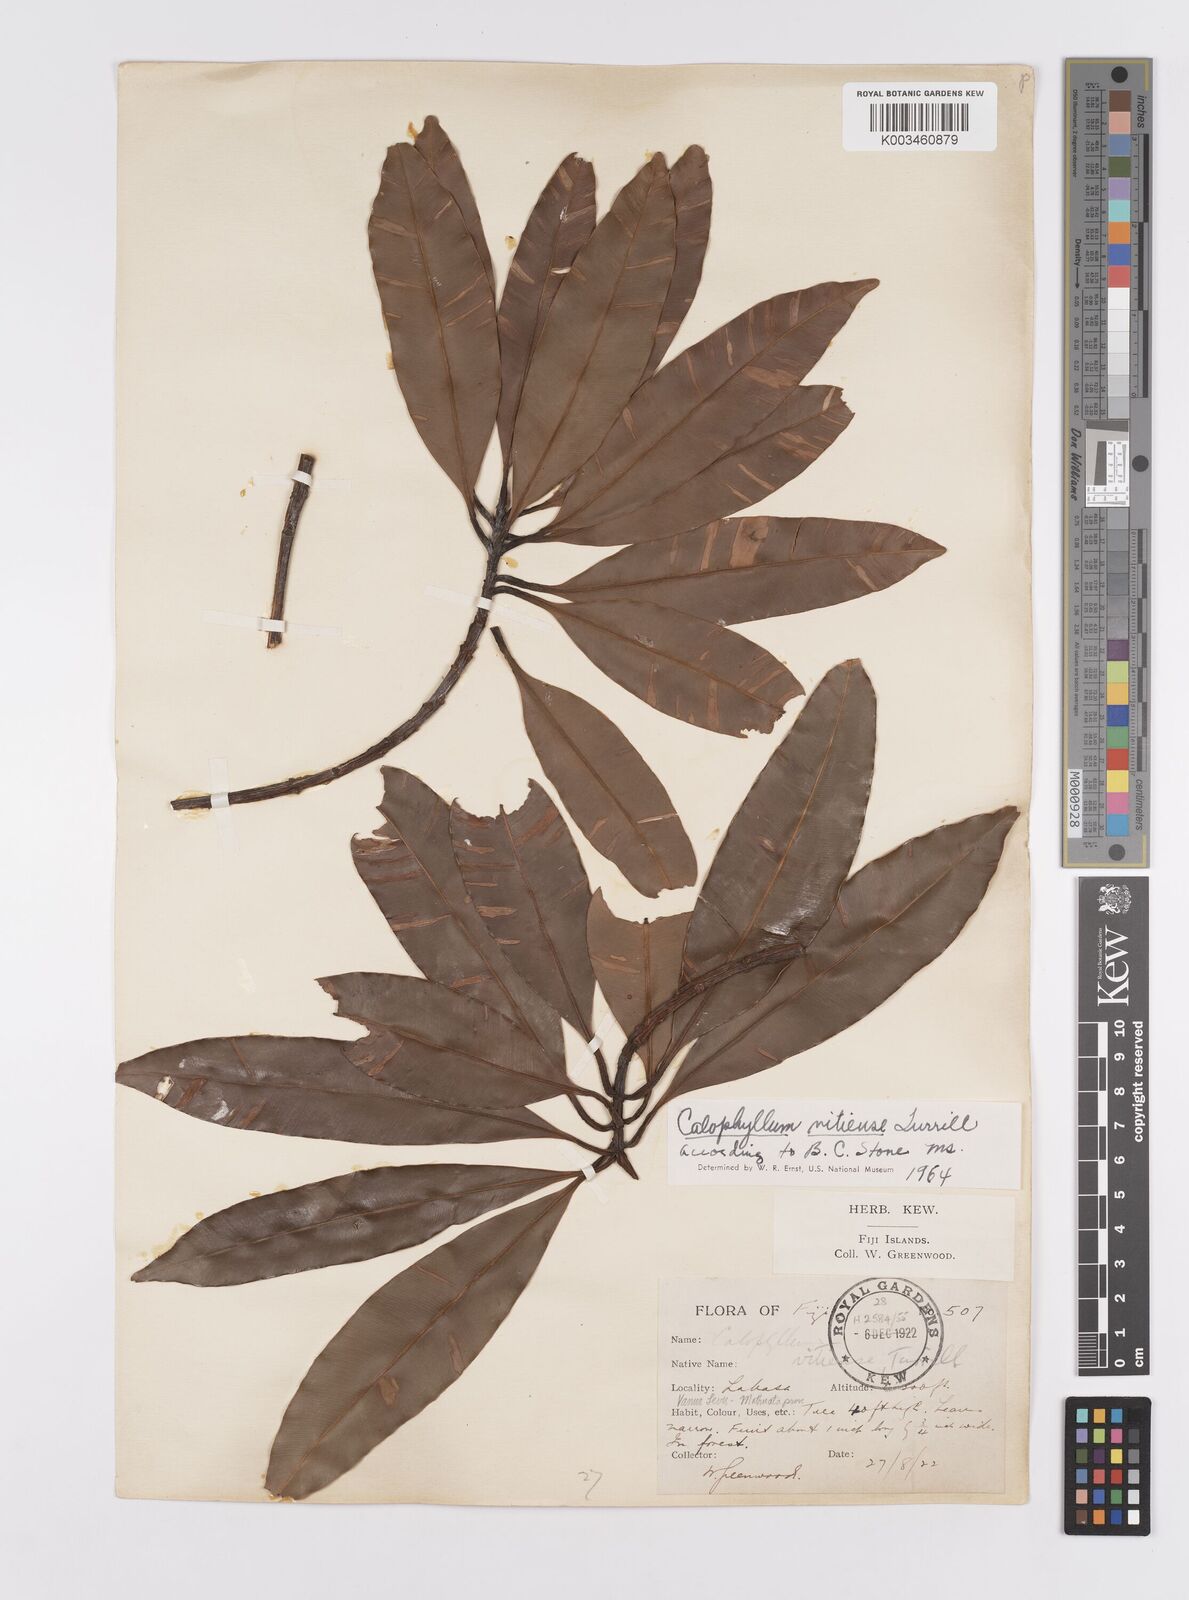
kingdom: Plantae
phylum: Tracheophyta
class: Magnoliopsida
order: Malpighiales
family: Calophyllaceae
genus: Calophyllum
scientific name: Calophyllum vitiense
